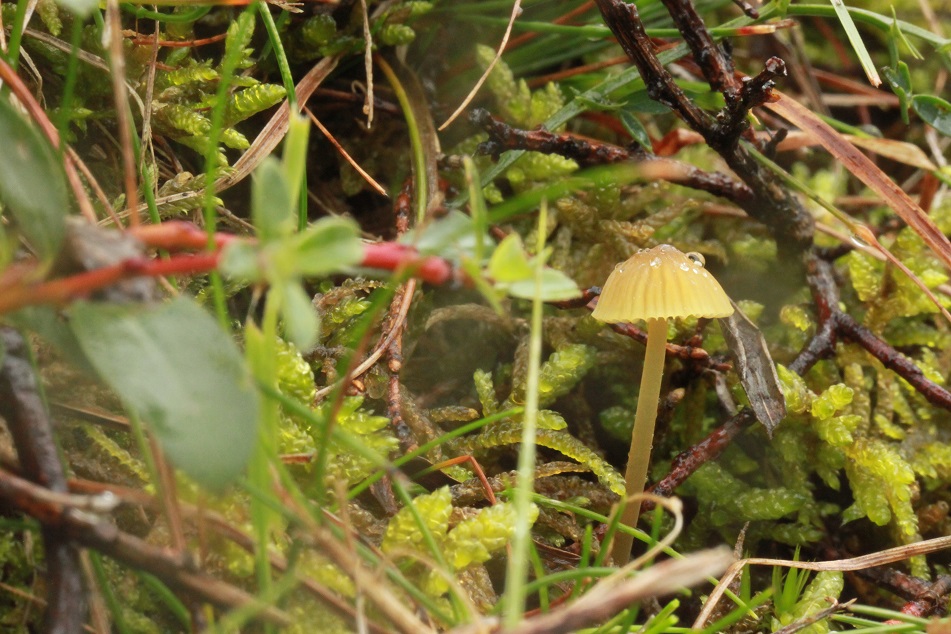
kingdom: Fungi
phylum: Basidiomycota
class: Agaricomycetes
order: Agaricales
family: Mycenaceae
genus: Mycena
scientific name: Mycena citrinomarginata
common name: gulægget huesvamp
